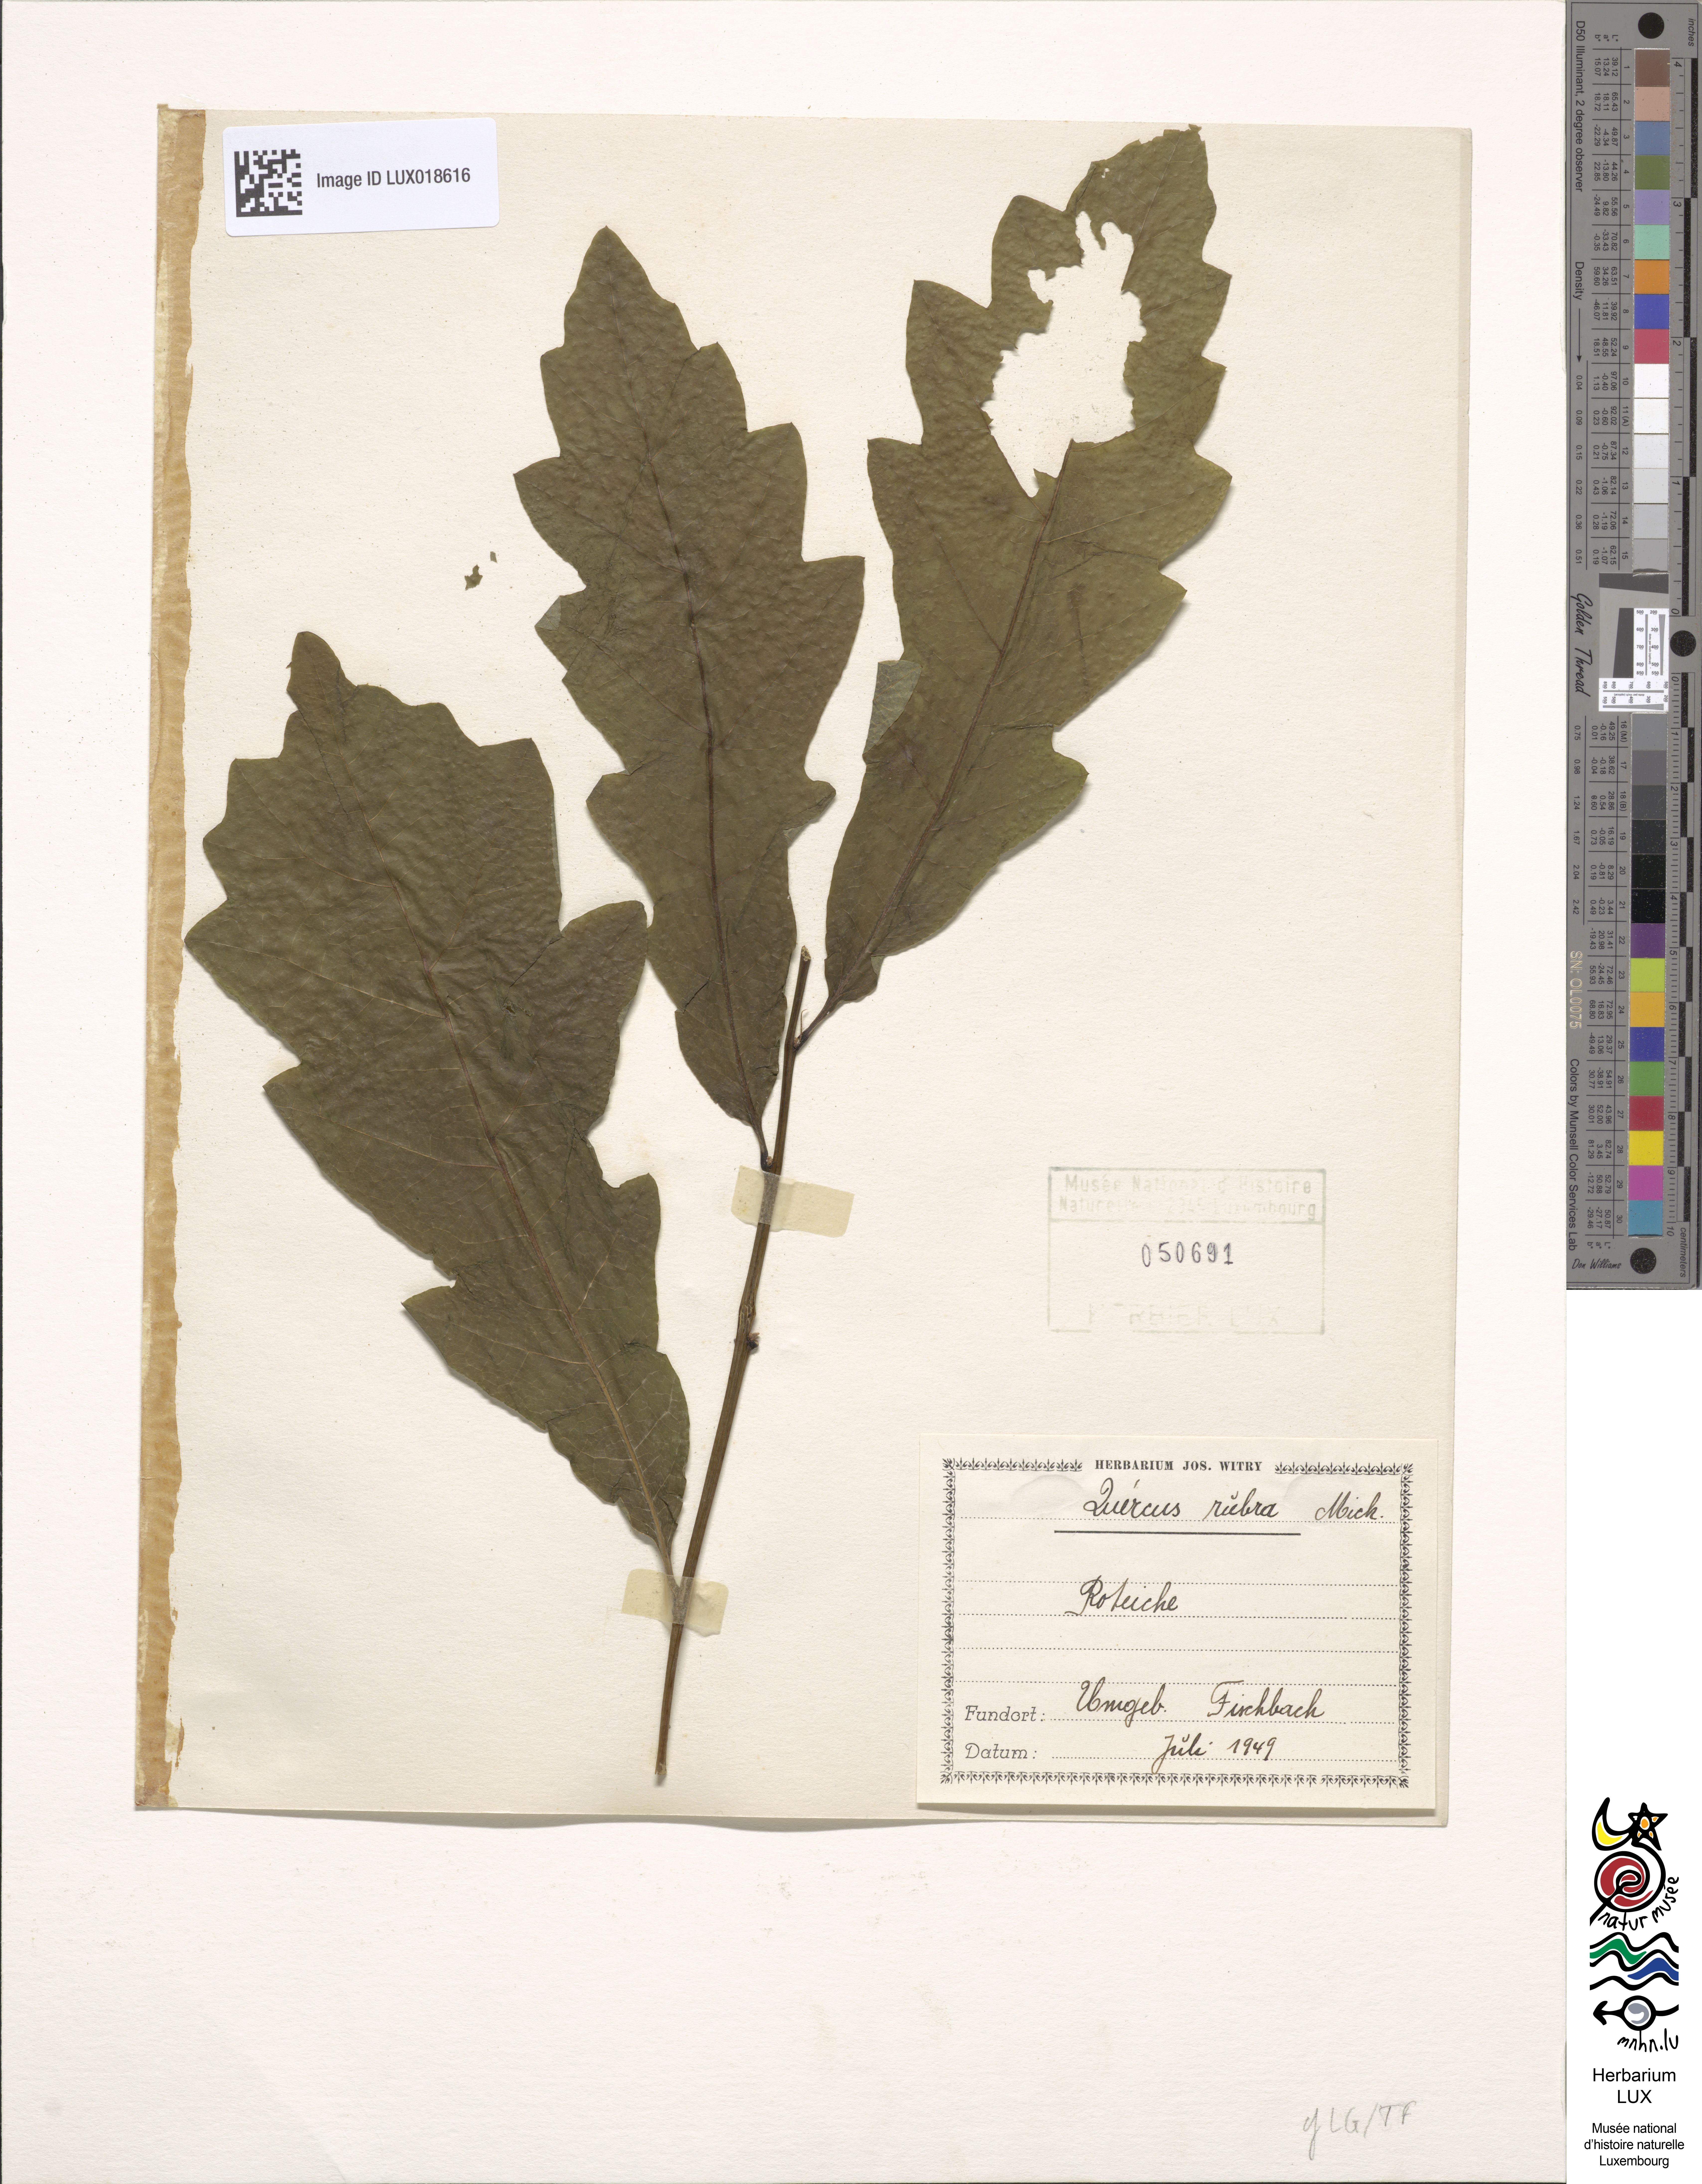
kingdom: Plantae
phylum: Tracheophyta
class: Magnoliopsida
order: Fagales
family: Fagaceae
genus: Quercus
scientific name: Quercus rubra
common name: Red oak
